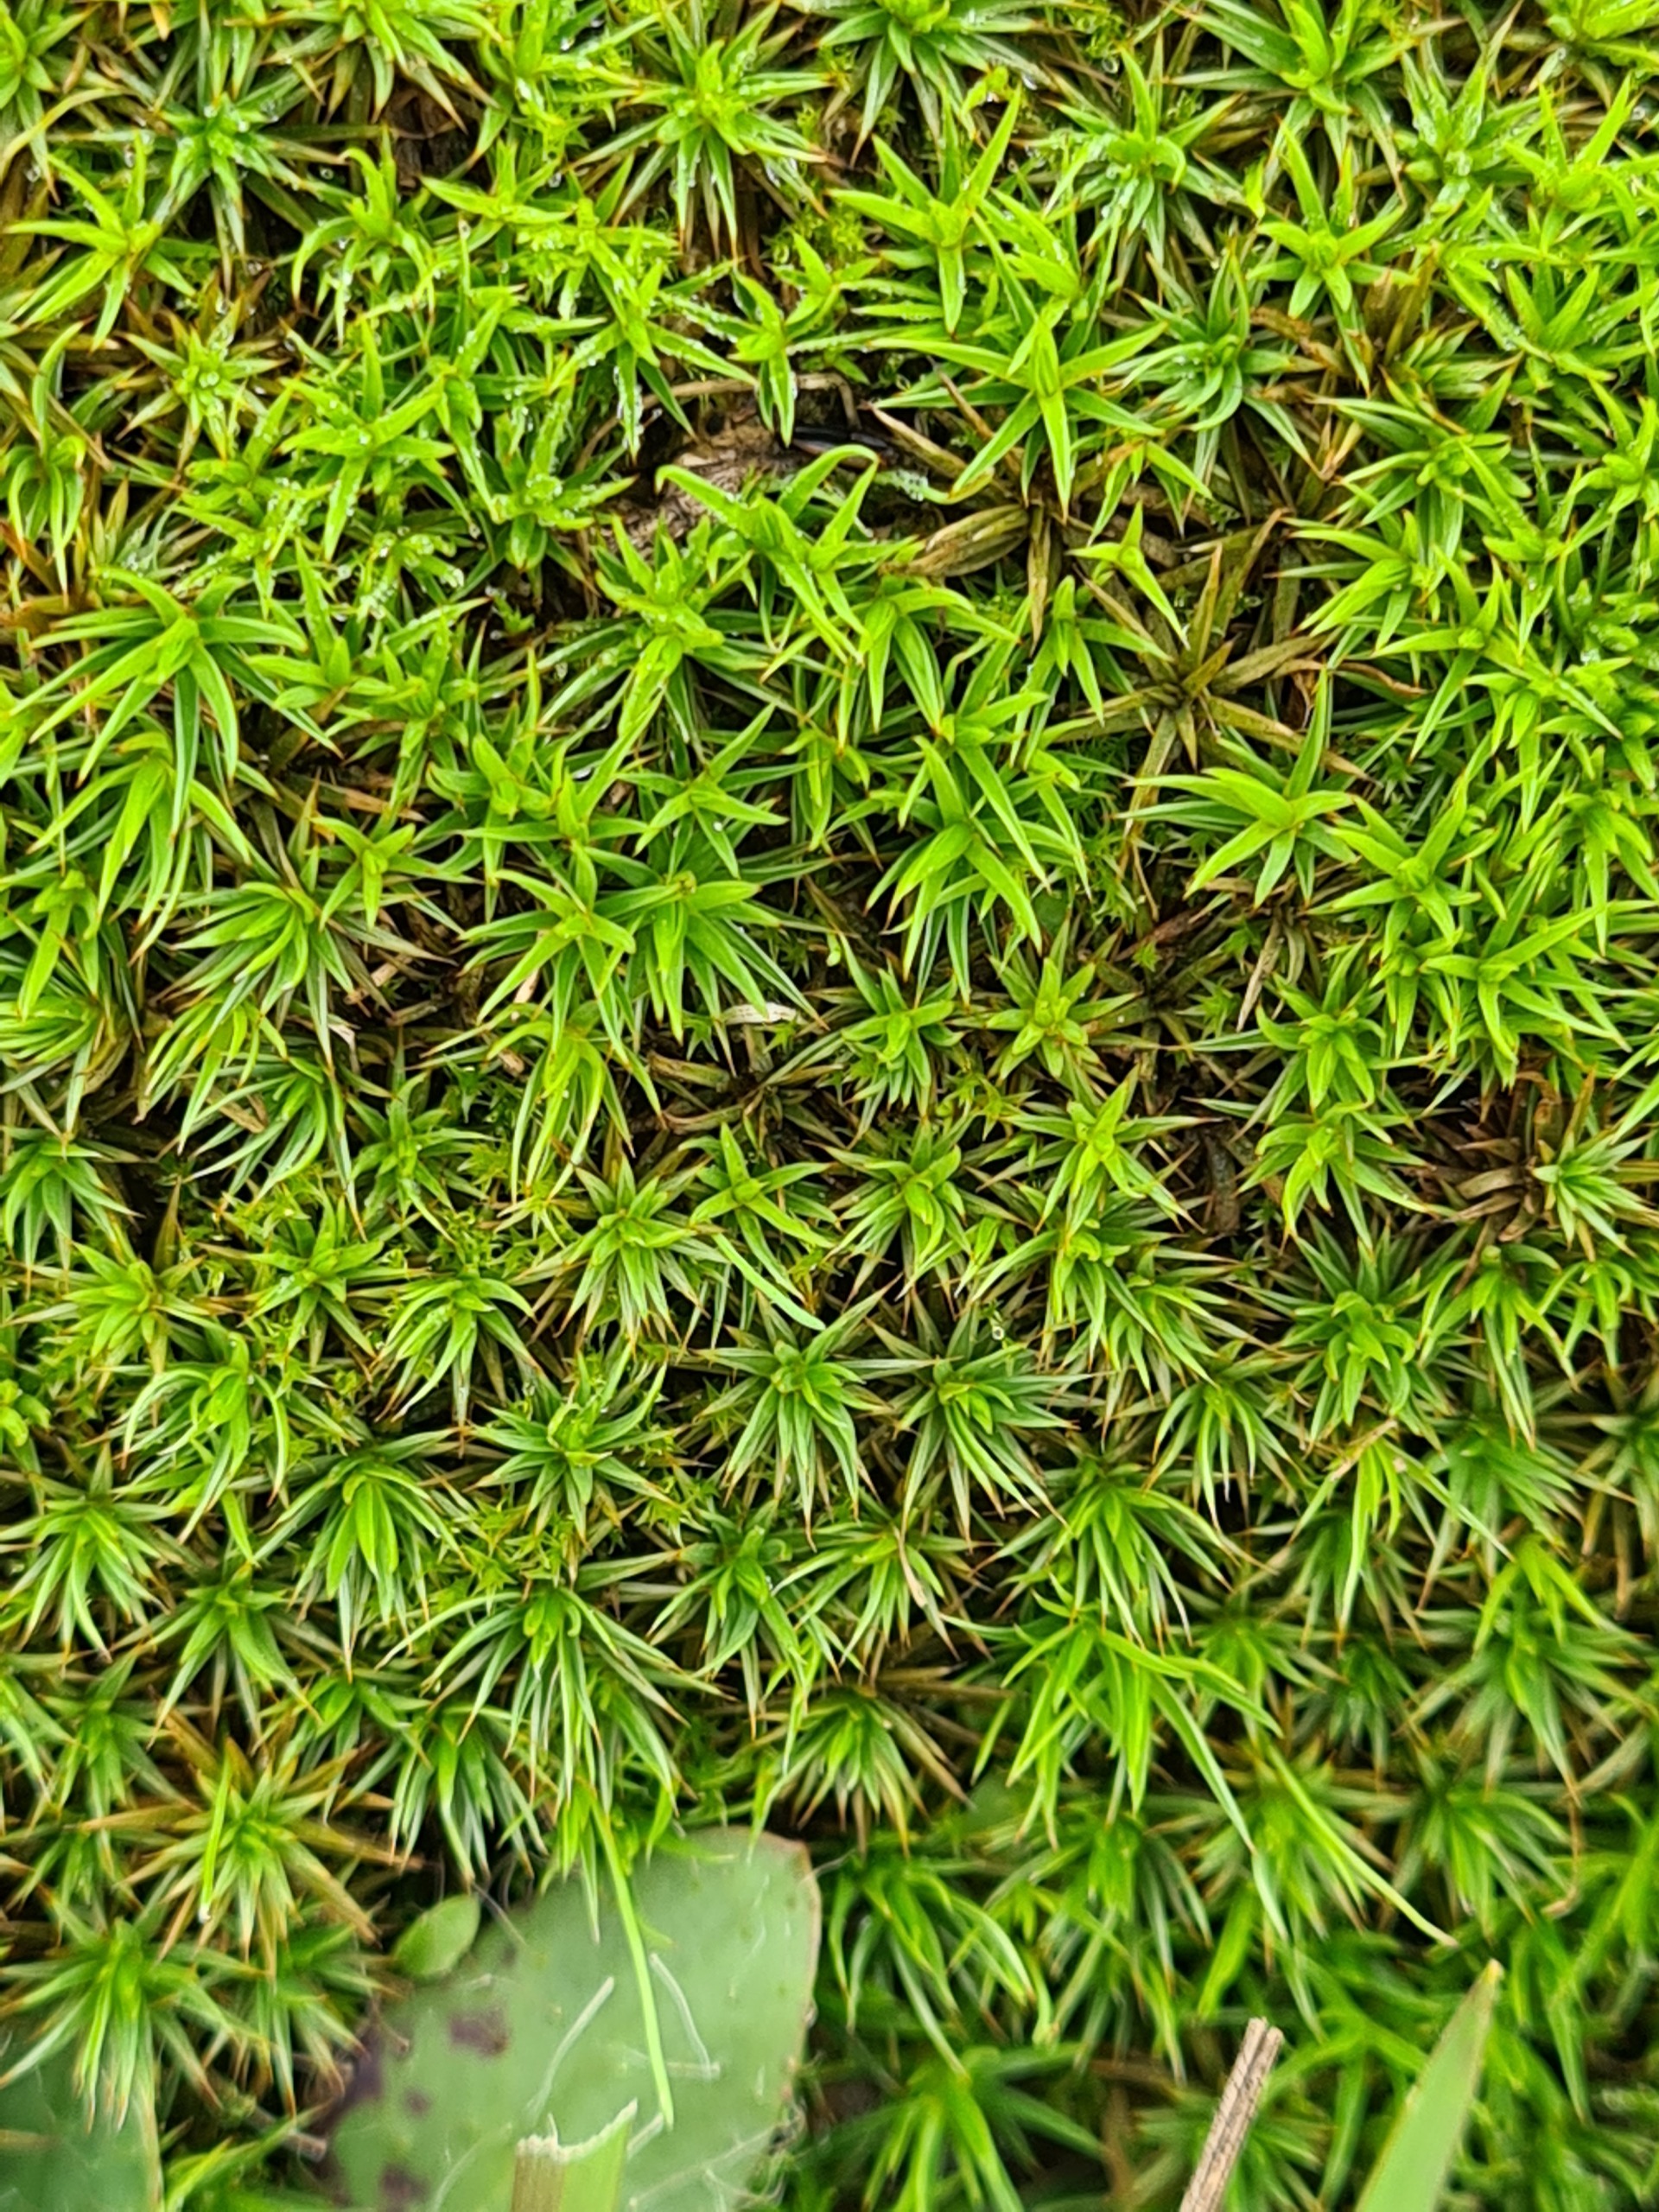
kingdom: Plantae
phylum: Bryophyta
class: Polytrichopsida
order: Polytrichales
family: Polytrichaceae
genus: Polytrichum
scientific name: Polytrichum juniperinum
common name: Ene-jomfruhår
